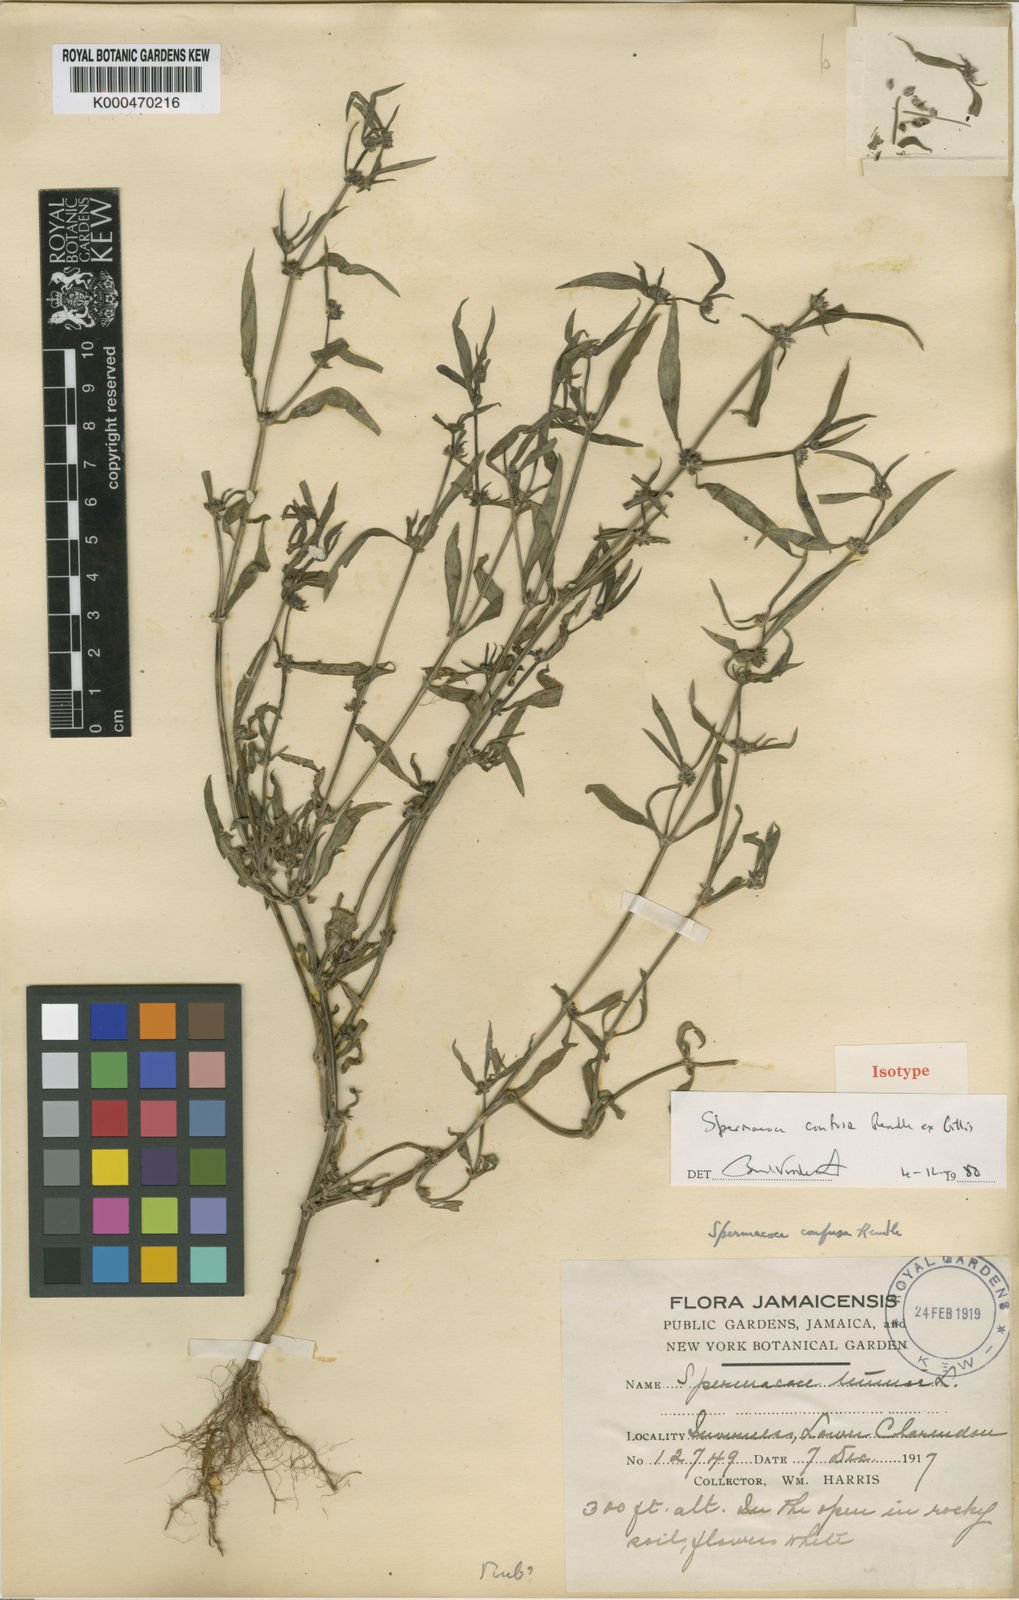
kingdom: Plantae
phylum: Tracheophyta
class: Magnoliopsida
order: Gentianales
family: Rubiaceae
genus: Spermacoce
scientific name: Spermacoce tenuior
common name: River false buttonweed
